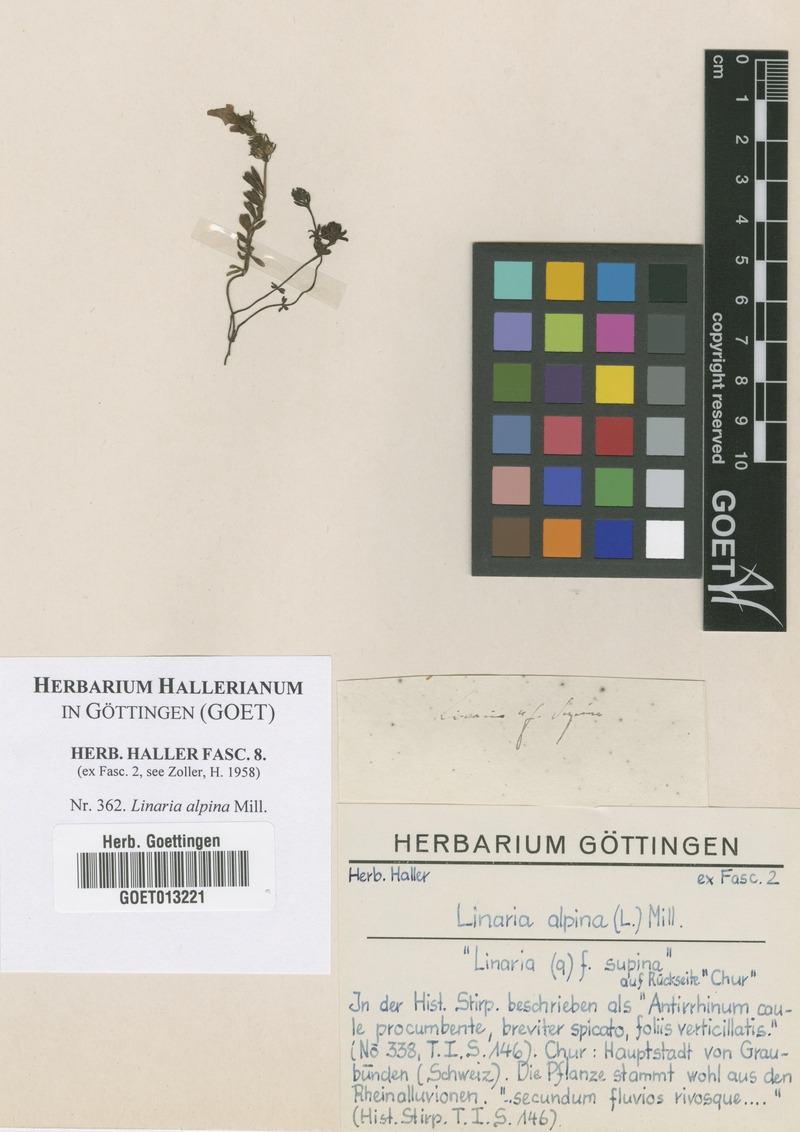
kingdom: Plantae
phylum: Tracheophyta
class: Magnoliopsida
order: Lamiales
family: Plantaginaceae
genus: Linaria
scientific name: Linaria alpina
